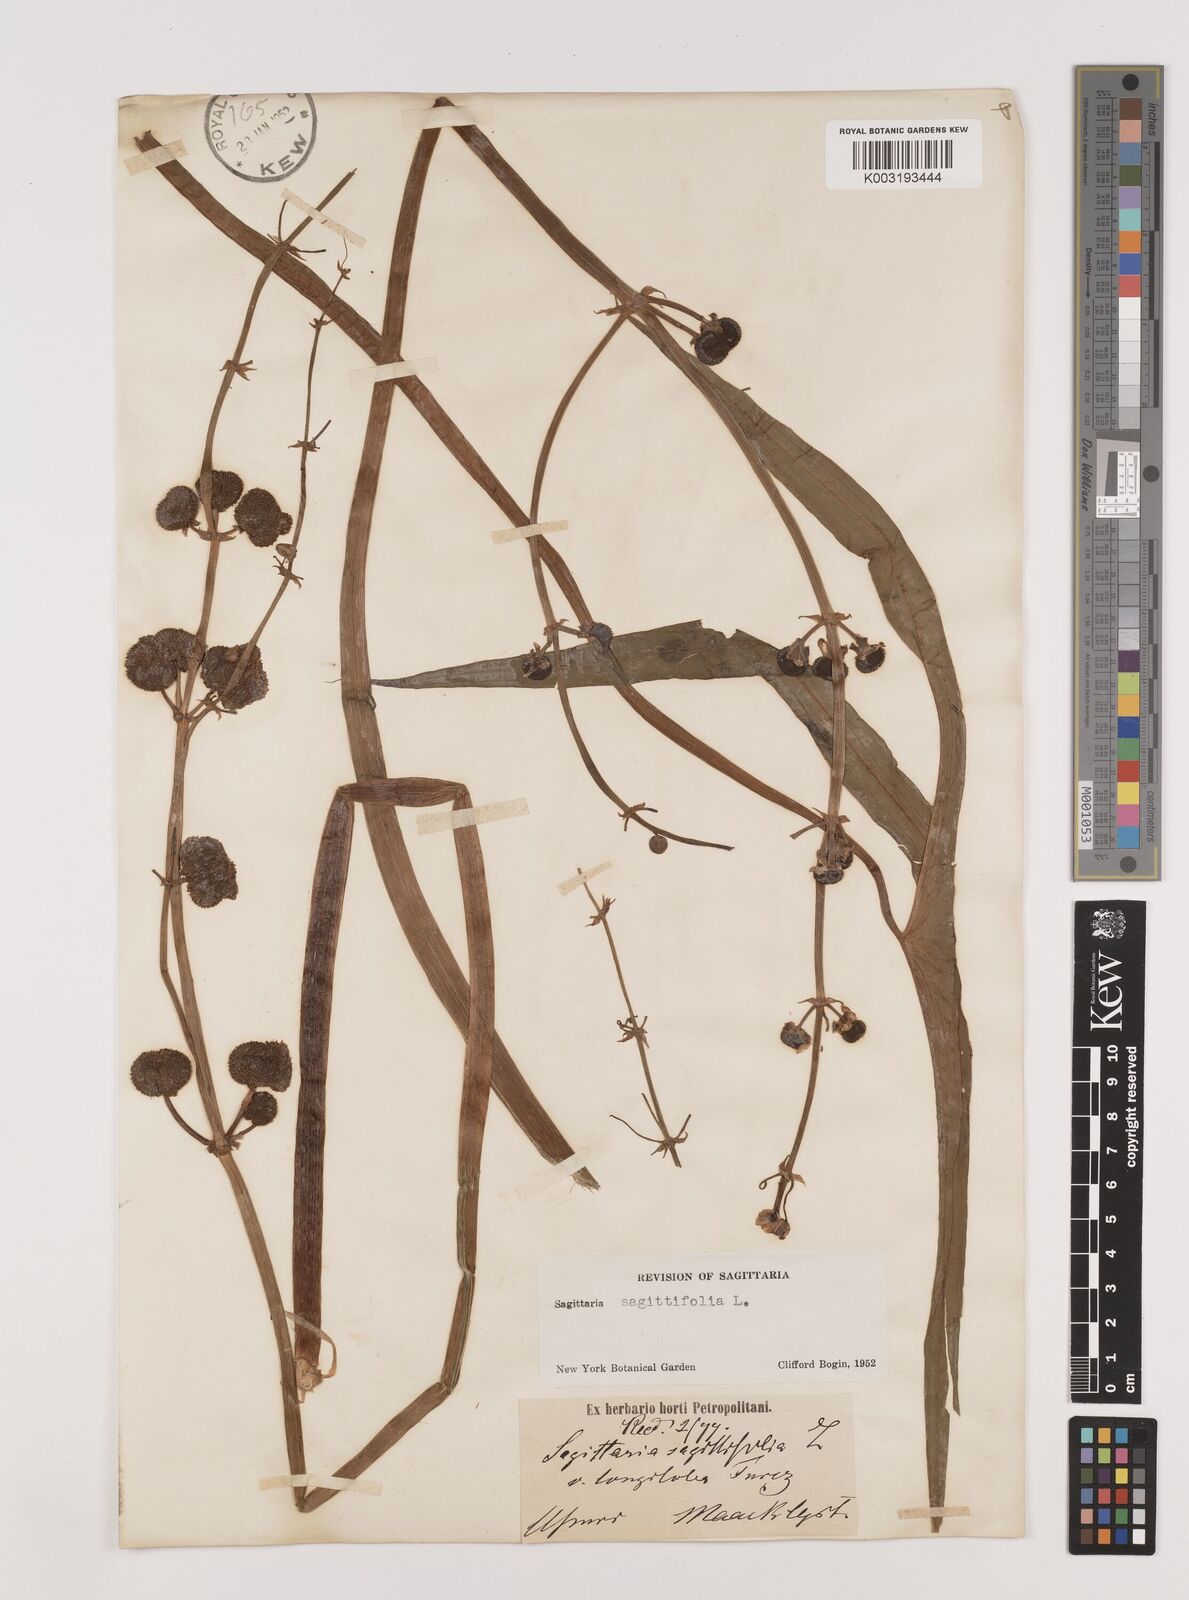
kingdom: Plantae
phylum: Tracheophyta
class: Liliopsida
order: Alismatales
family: Alismataceae
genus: Sagittaria
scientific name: Sagittaria trifolia
